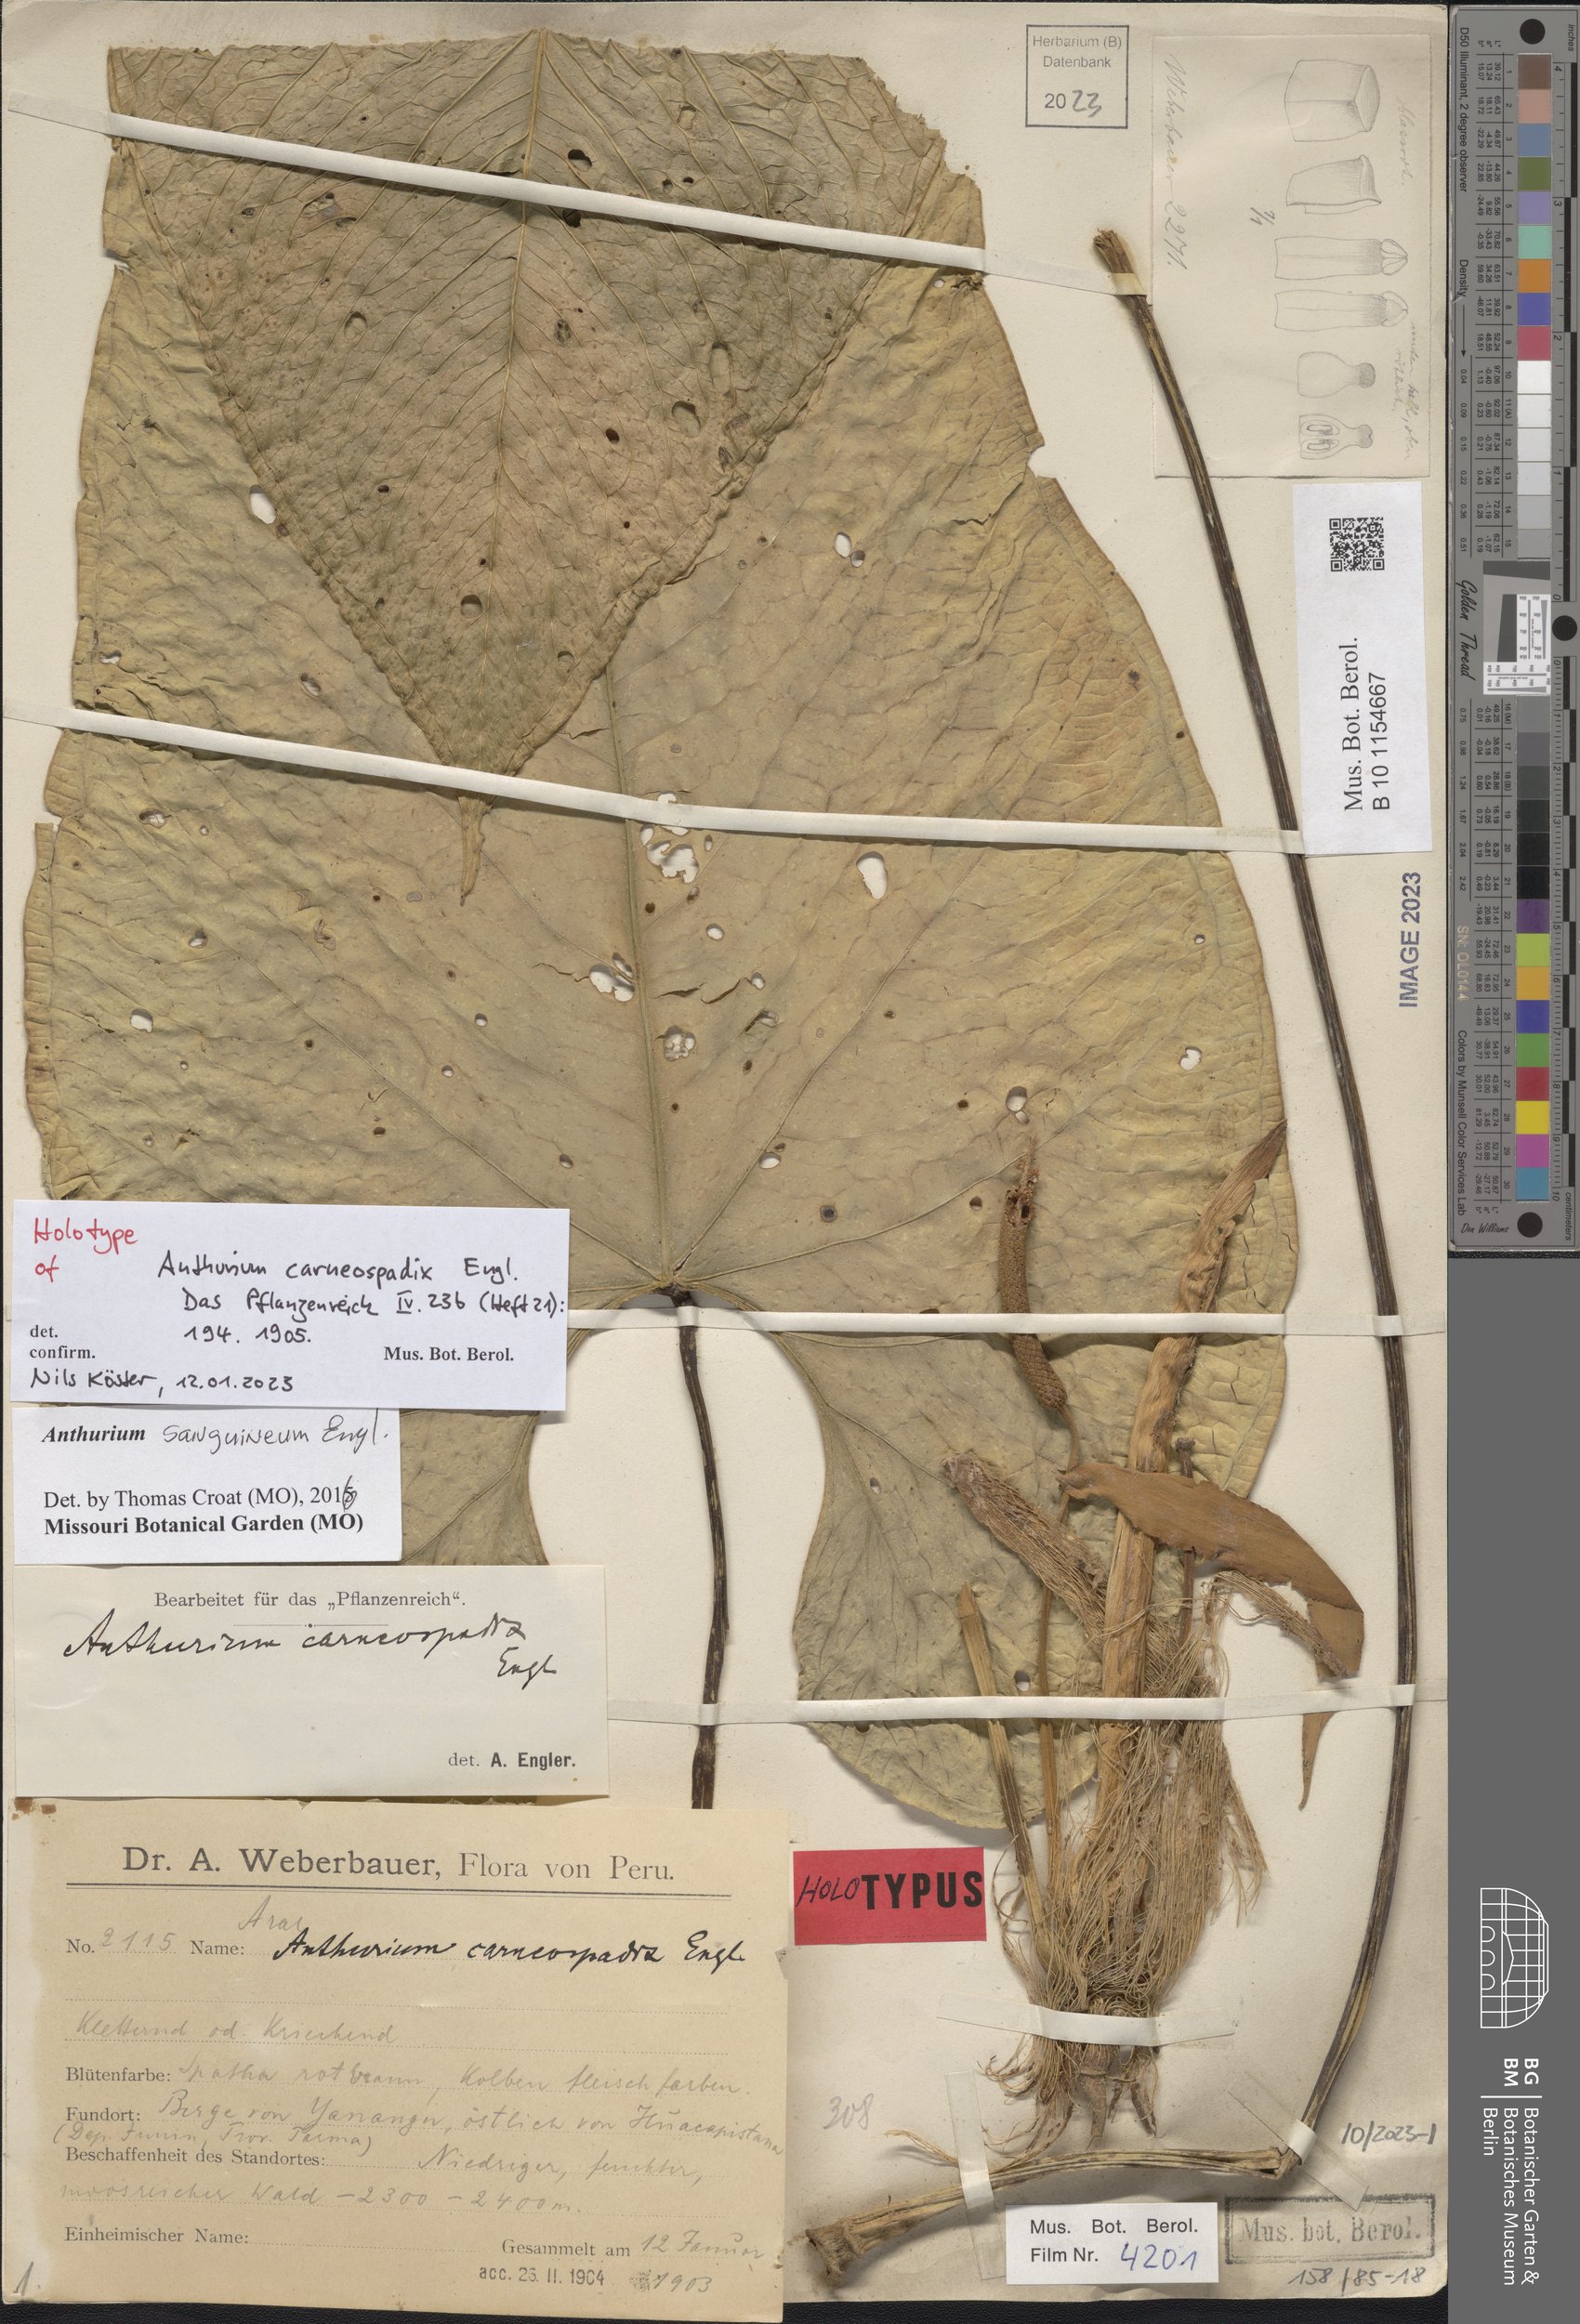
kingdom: Plantae
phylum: Tracheophyta
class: Liliopsida
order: Alismatales
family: Araceae
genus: Anthurium
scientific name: Anthurium sanguineum
